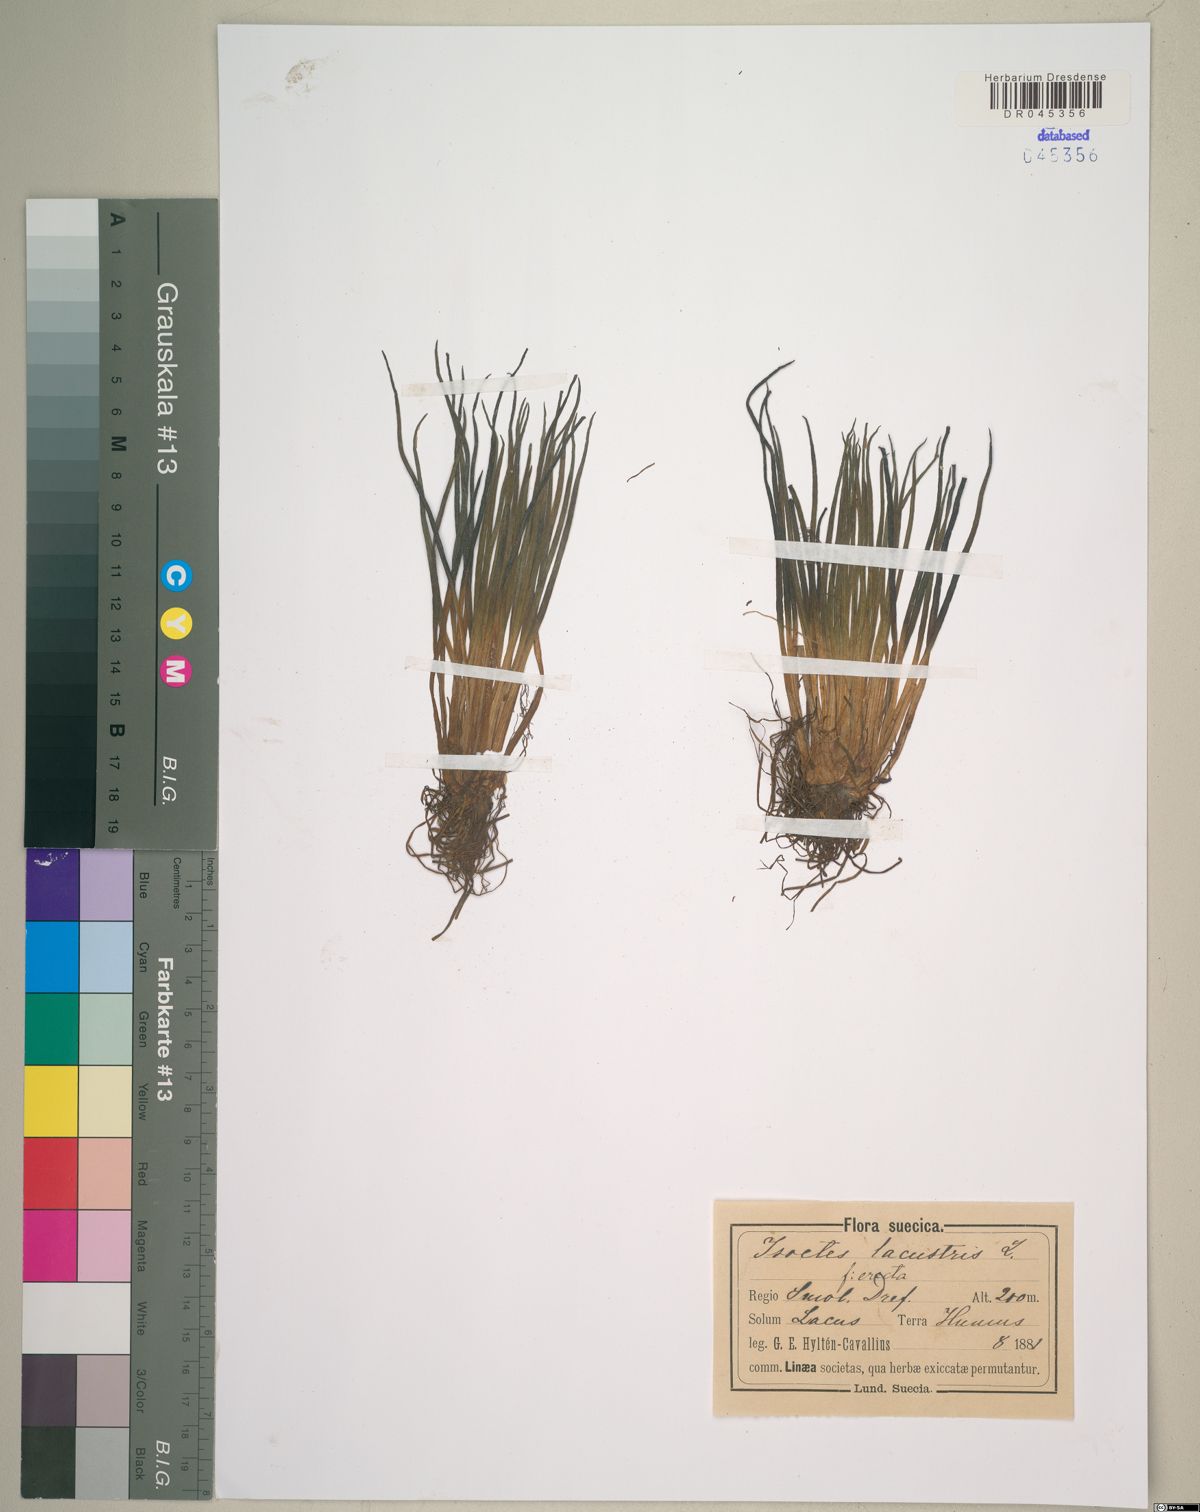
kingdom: Plantae
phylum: Tracheophyta
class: Lycopodiopsida
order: Isoetales
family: Isoetaceae
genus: Isoetes
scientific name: Isoetes lacustris
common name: Common quillwort
